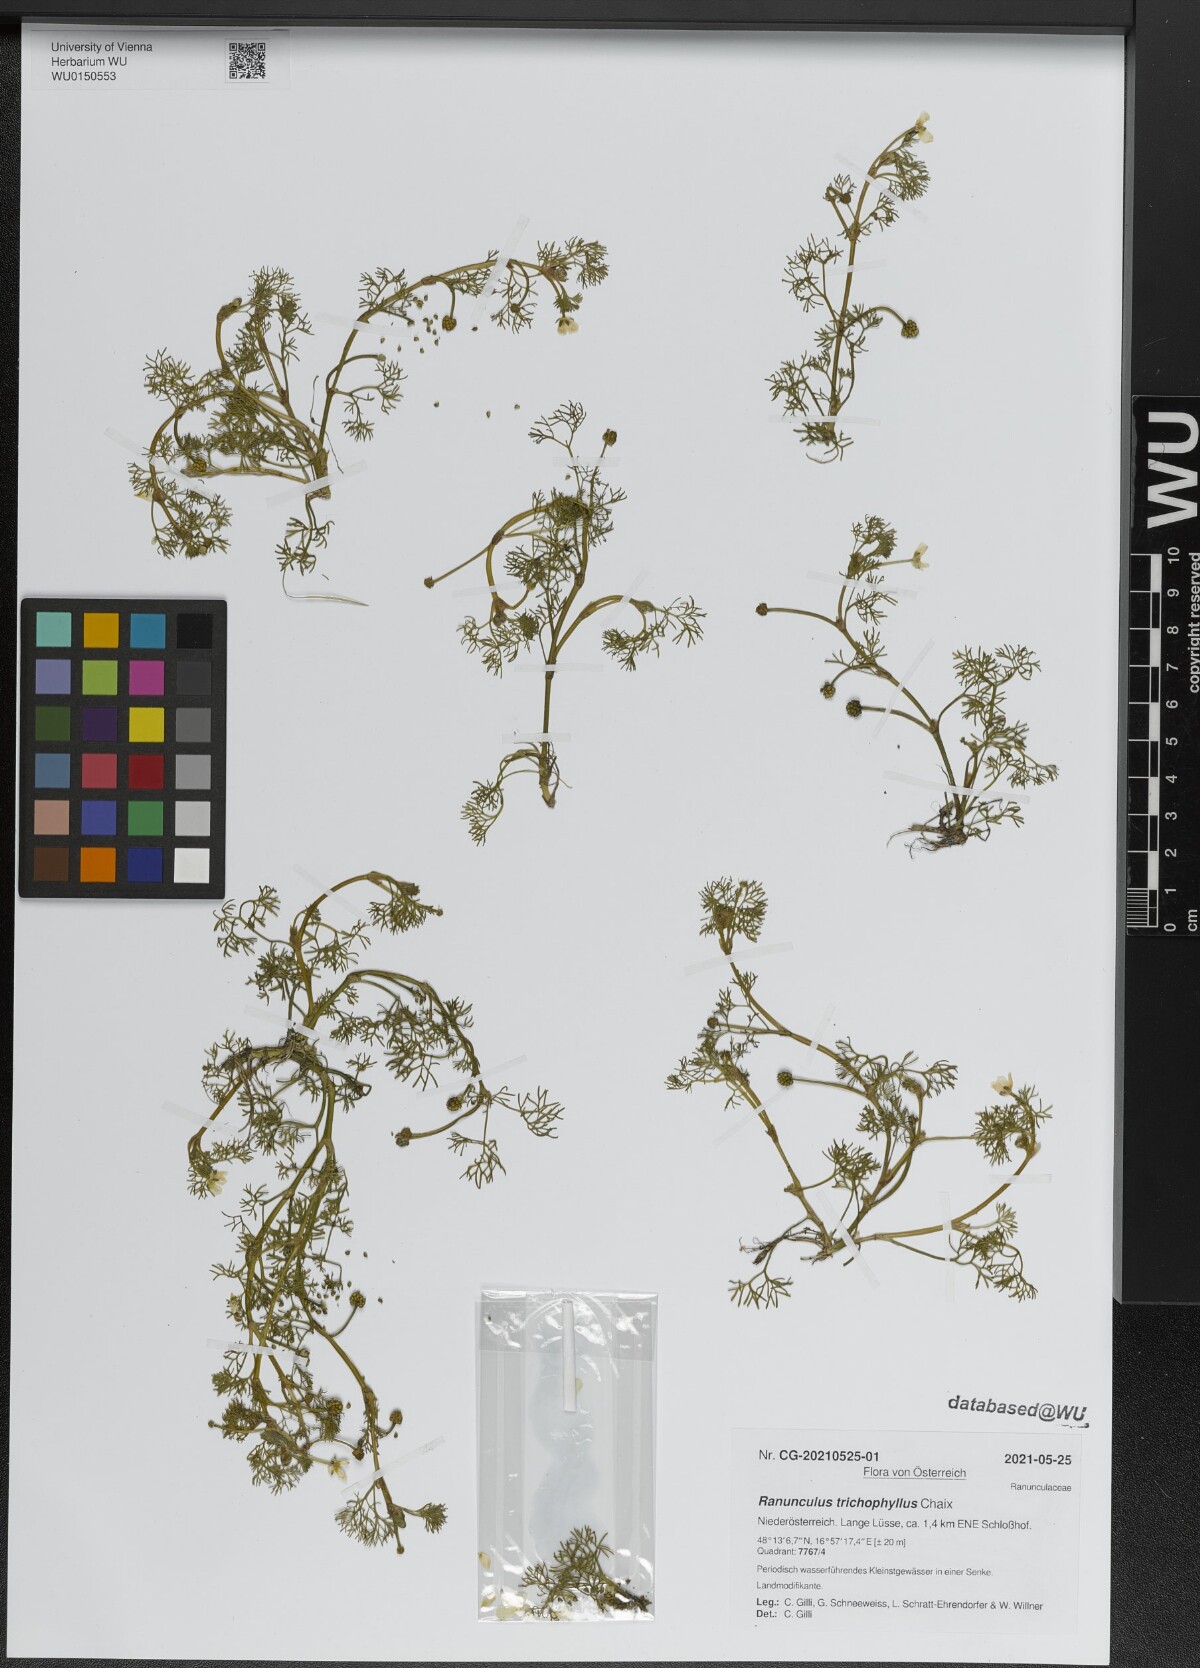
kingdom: Plantae
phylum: Tracheophyta
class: Magnoliopsida
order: Ranunculales
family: Ranunculaceae
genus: Ranunculus
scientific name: Ranunculus trichophyllus
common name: Thread-leaved water-crowfoot
